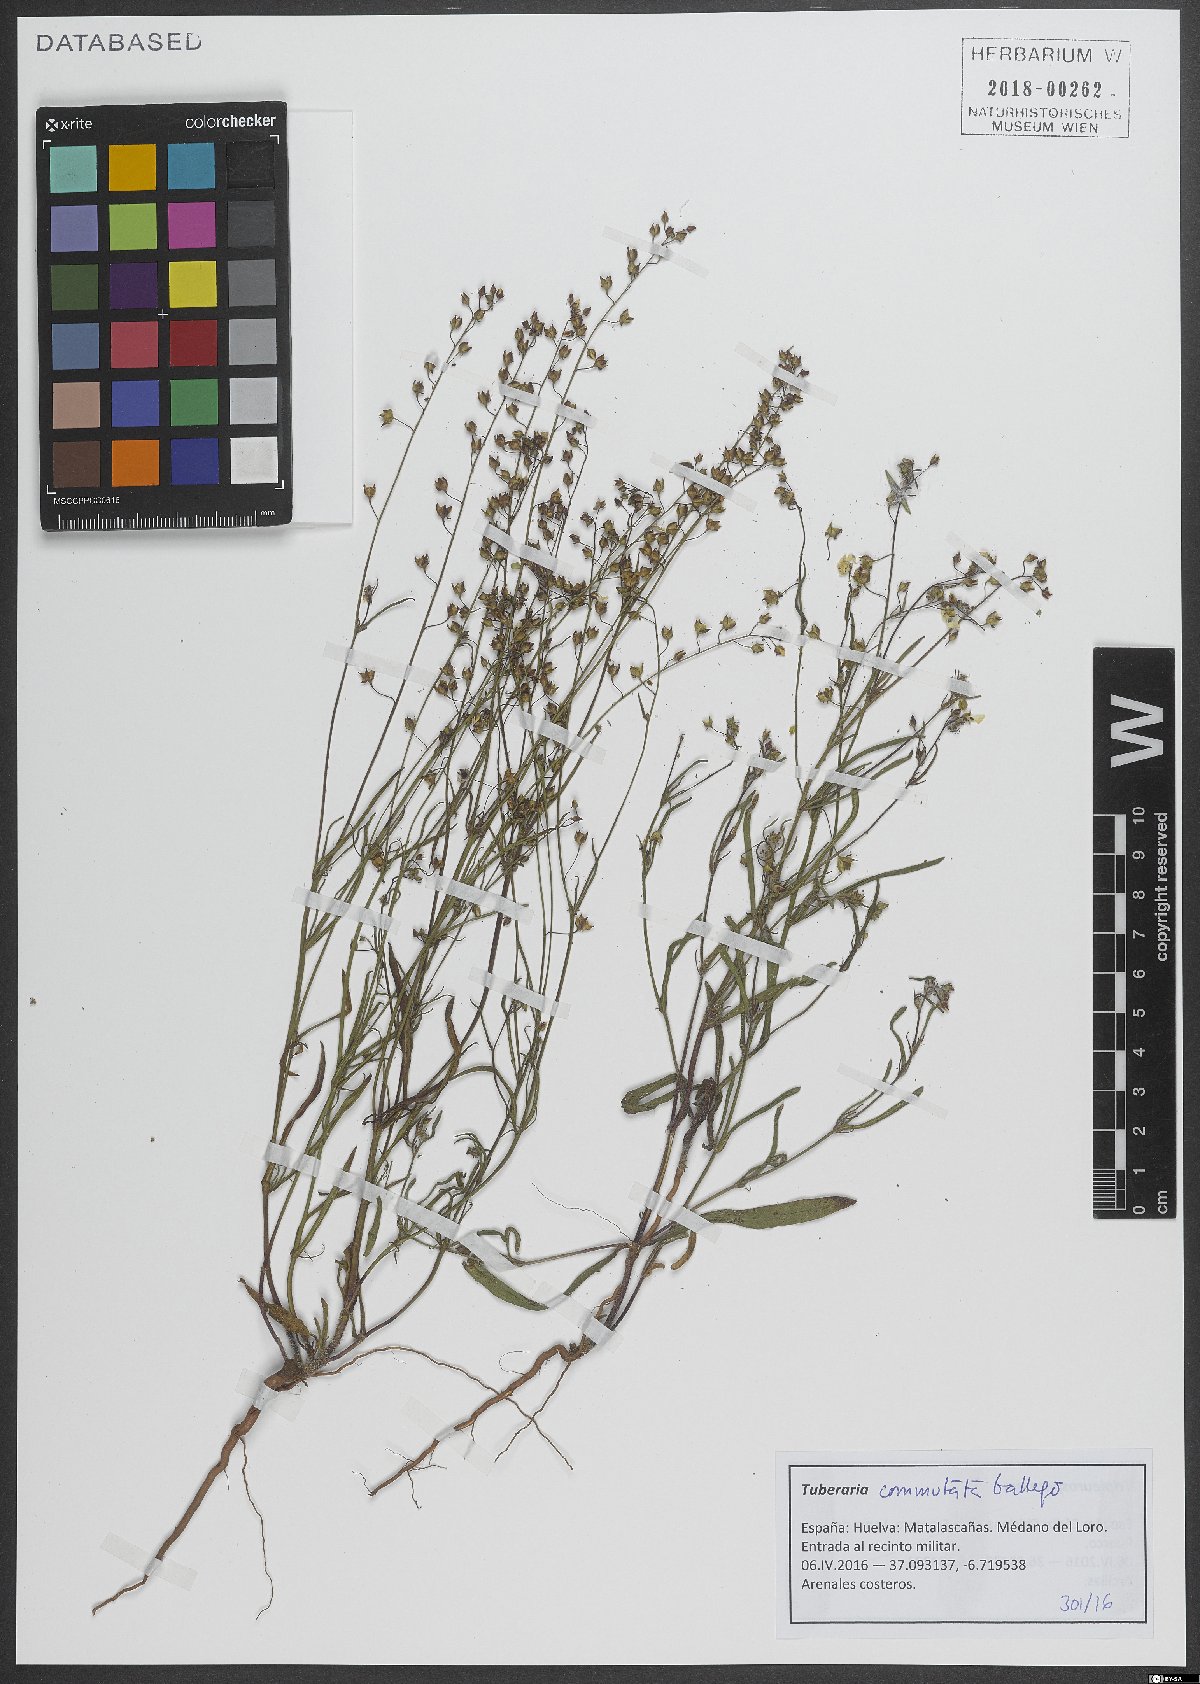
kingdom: Plantae
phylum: Tracheophyta
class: Magnoliopsida
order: Malvales
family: Cistaceae
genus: Tuberaria
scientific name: Tuberaria commutata
